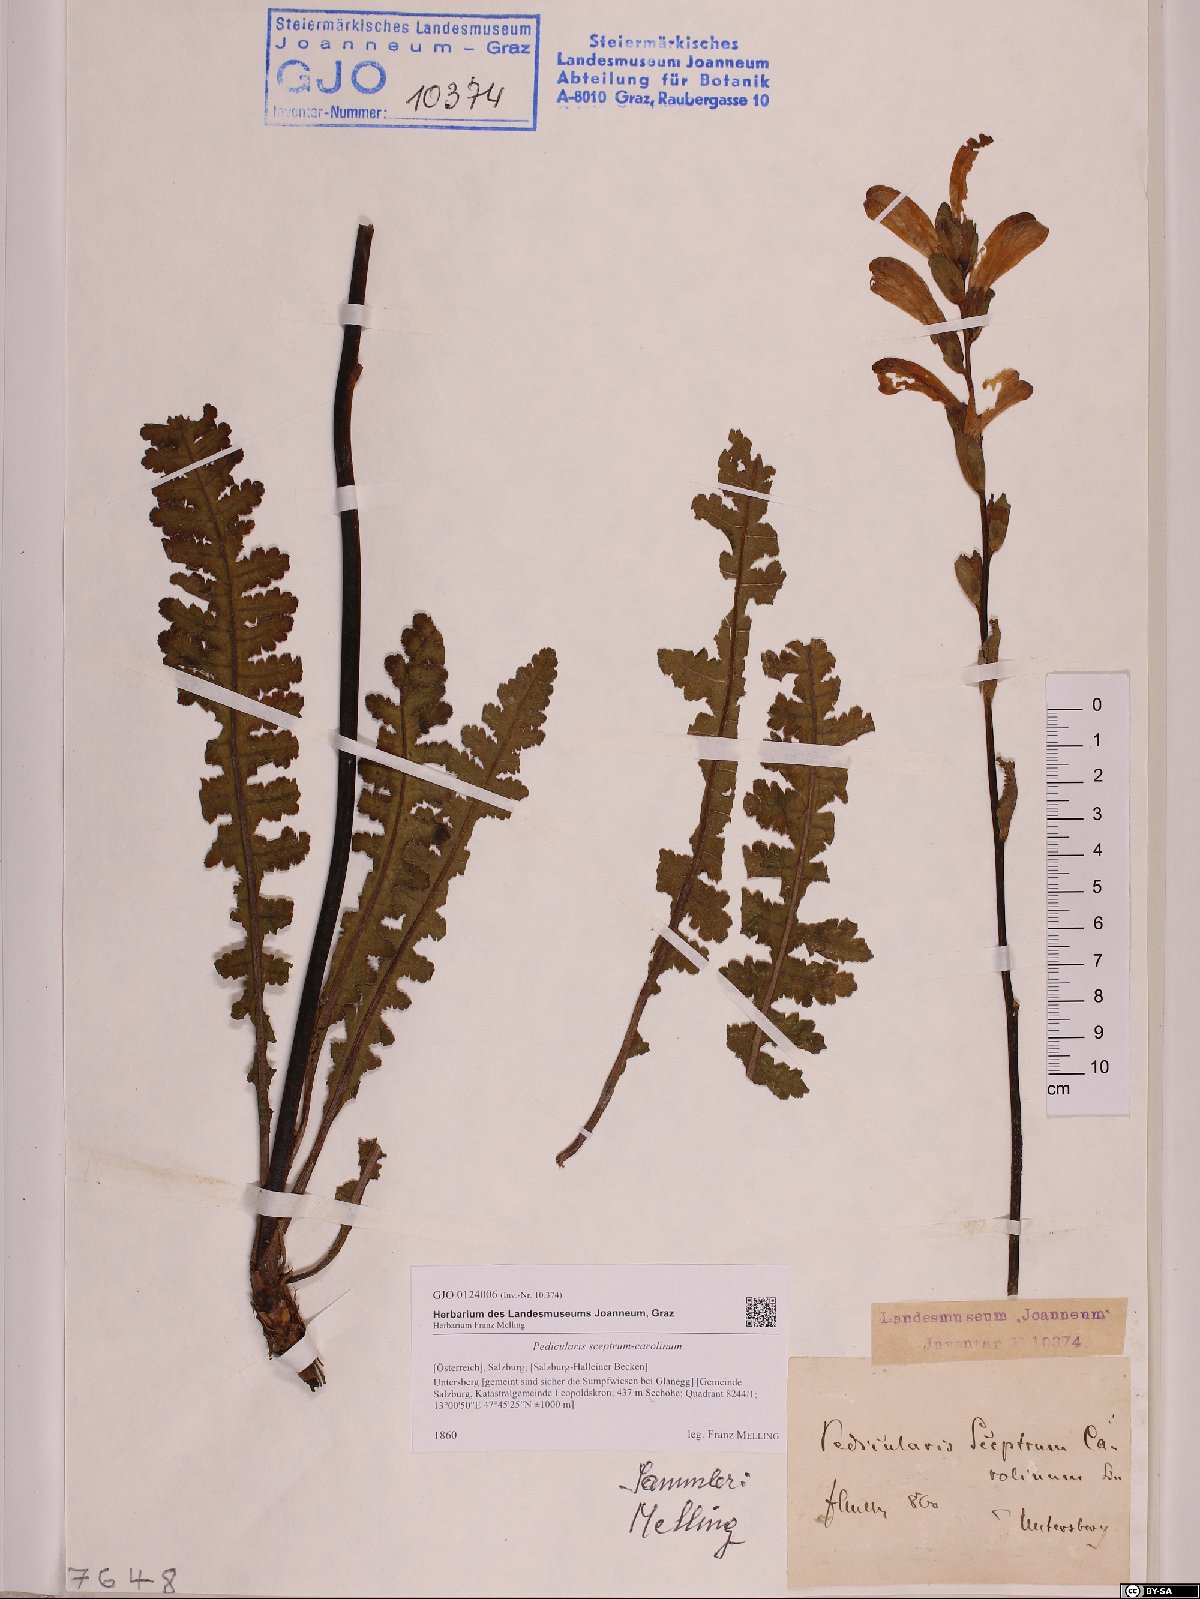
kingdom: Plantae
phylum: Tracheophyta
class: Magnoliopsida
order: Lamiales
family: Orobanchaceae
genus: Pedicularis
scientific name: Pedicularis sceptrum-carolinum
